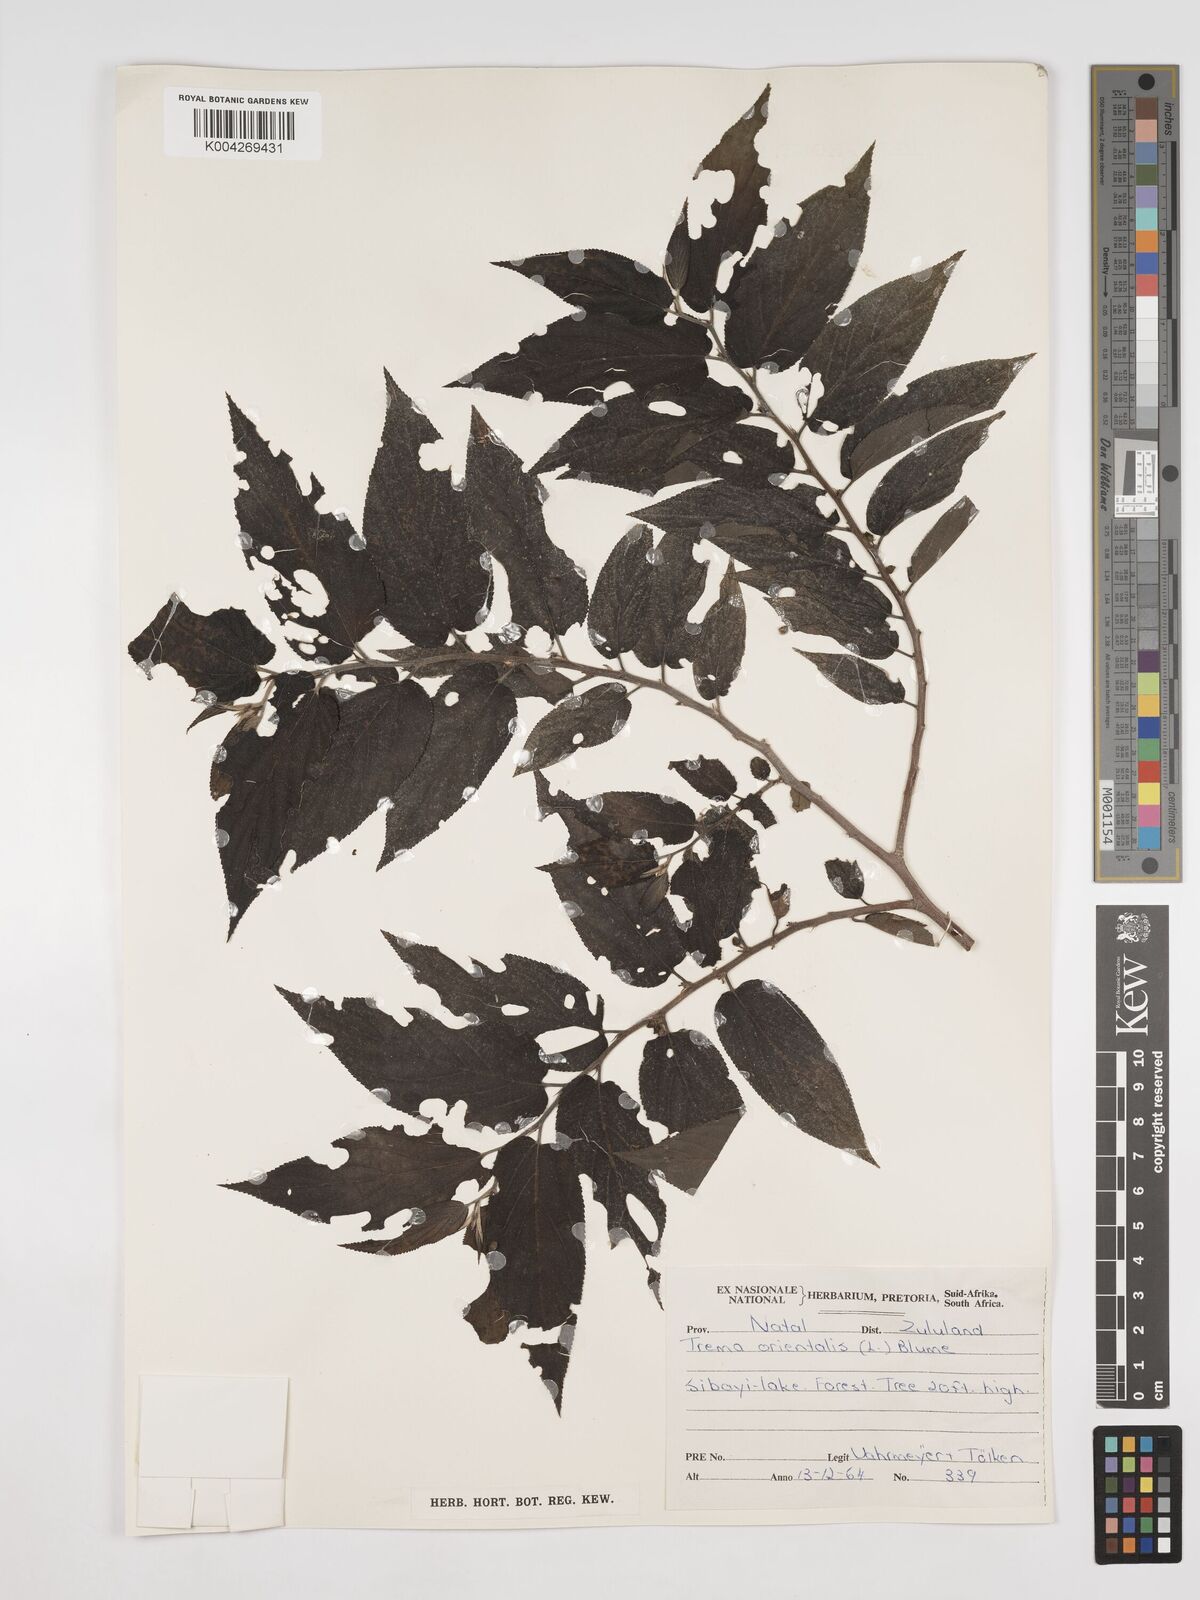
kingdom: Plantae
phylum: Tracheophyta
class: Magnoliopsida
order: Rosales
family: Cannabaceae
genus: Trema
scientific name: Trema orientale
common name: Indian charcoal tree
